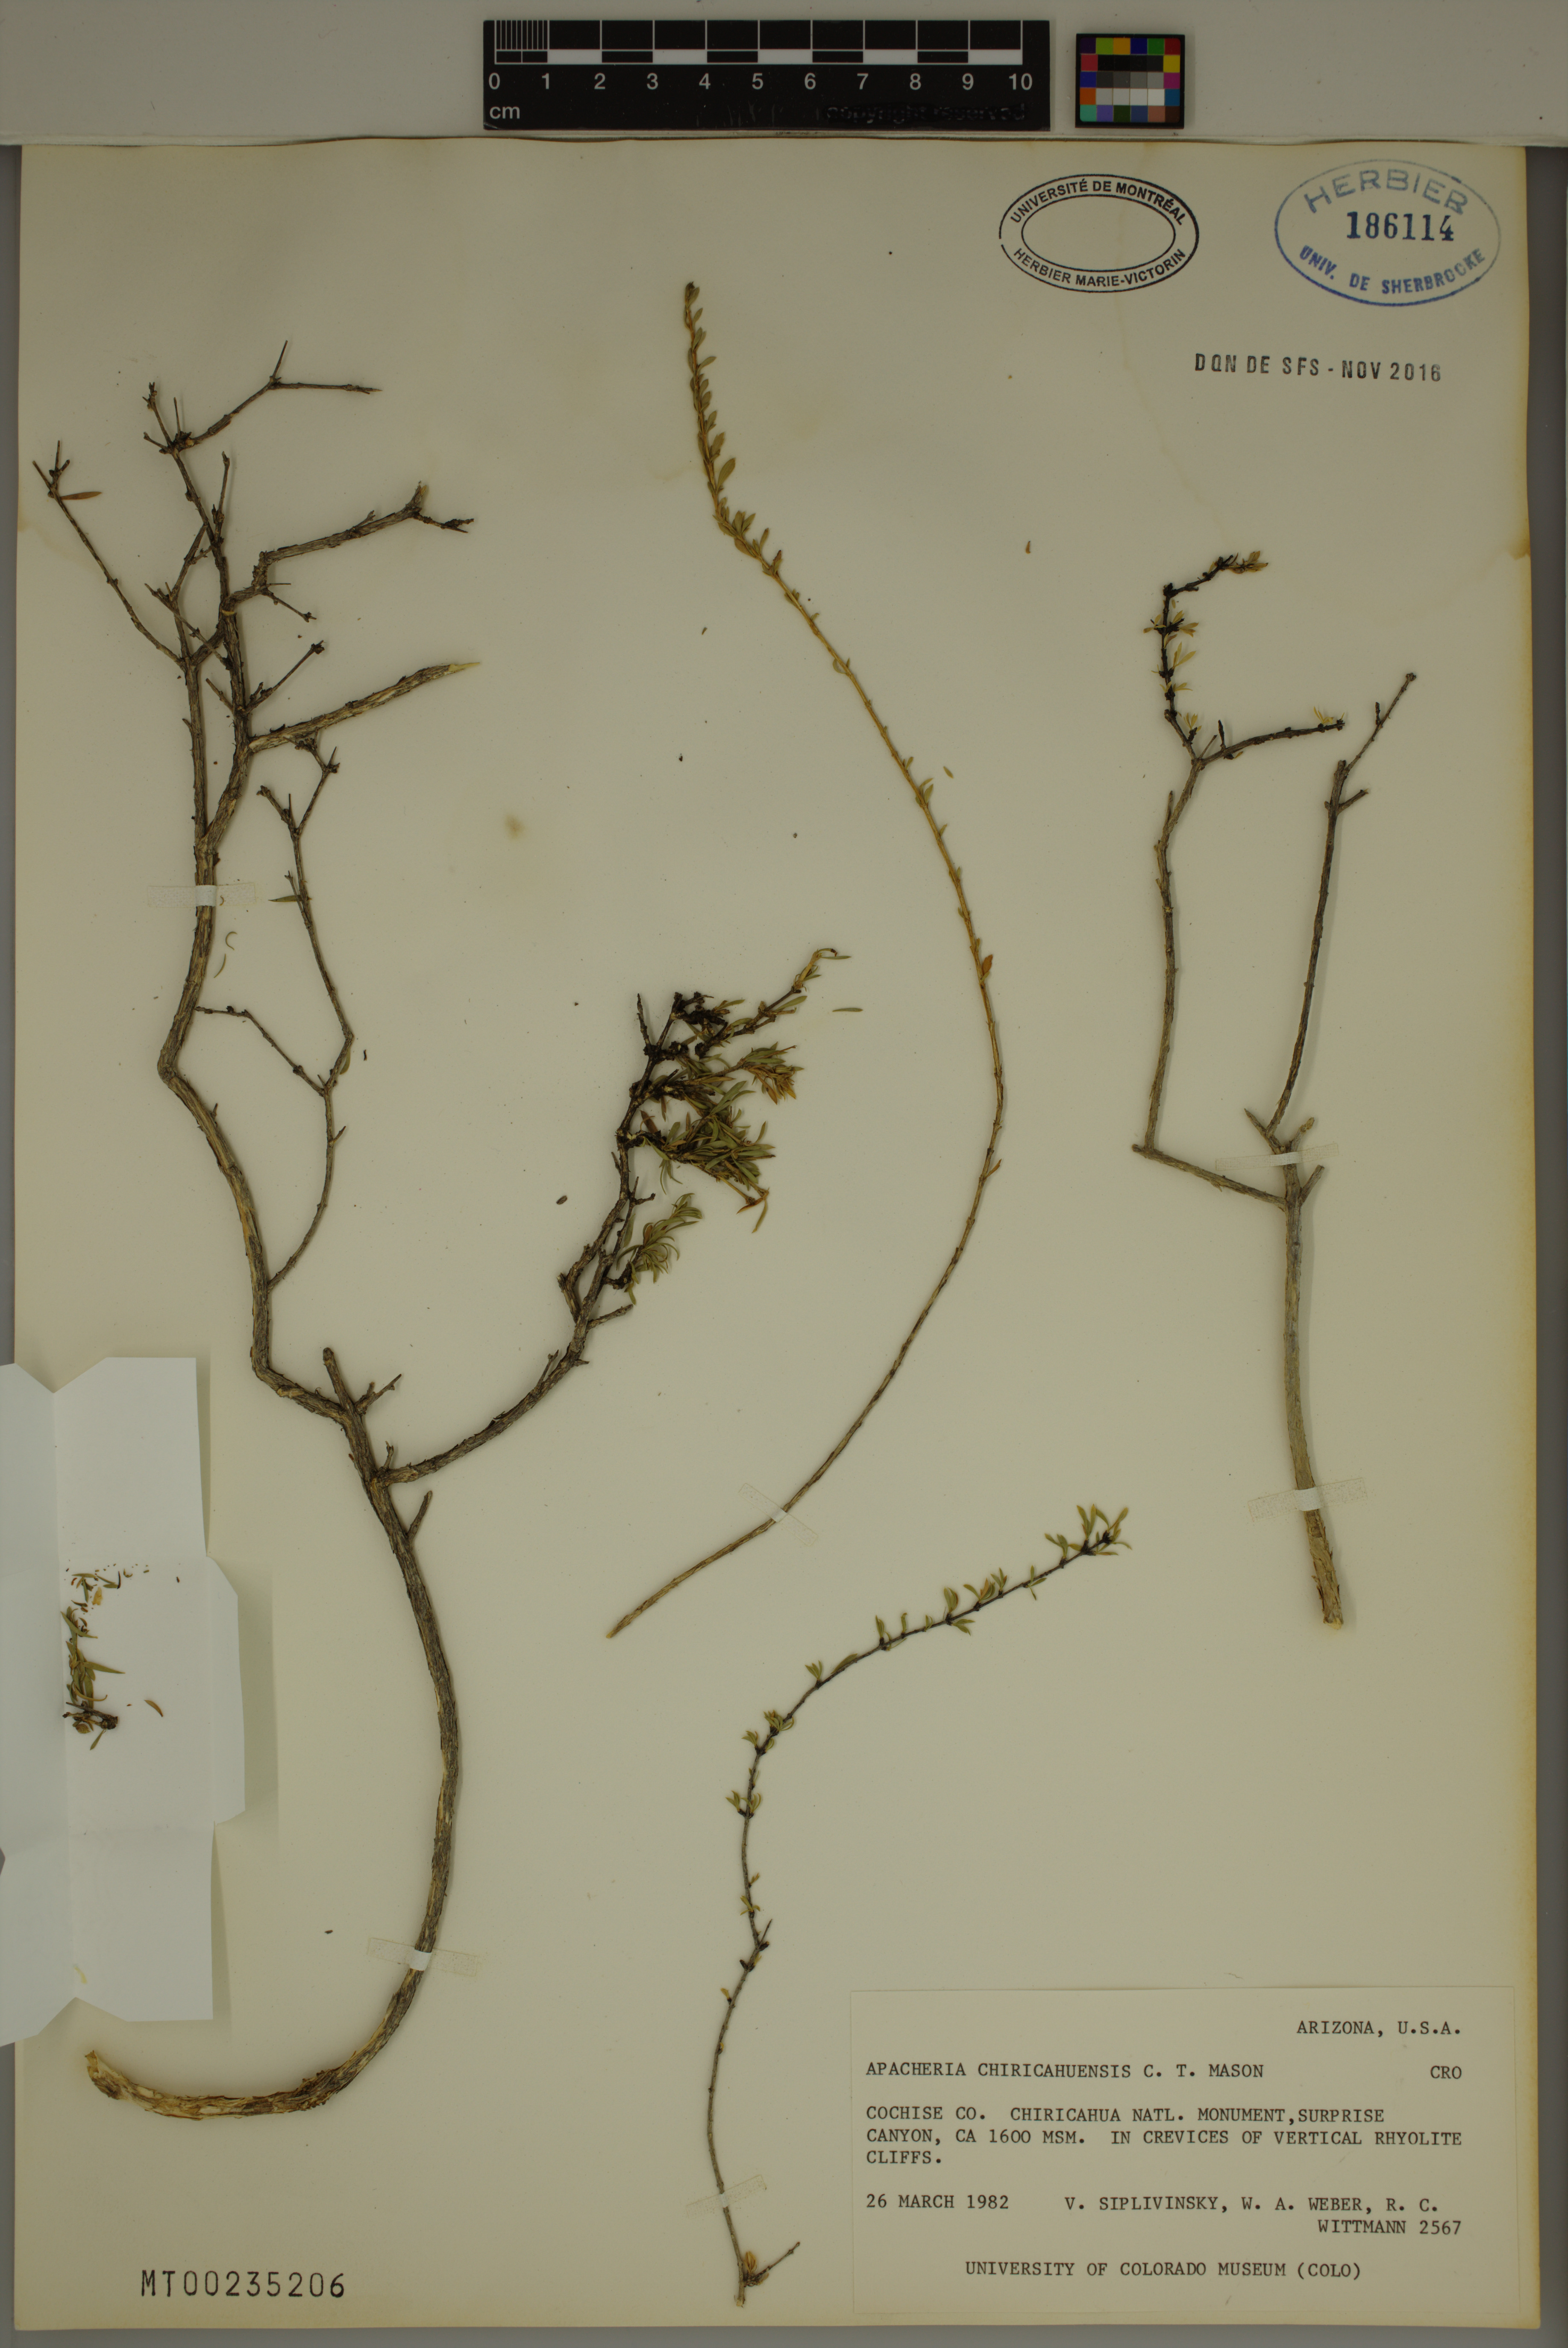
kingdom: Plantae
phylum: Tracheophyta
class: Magnoliopsida
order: Crossosomatales
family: Crossosomataceae
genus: Apacheria
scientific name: Apacheria chiricahuensis
